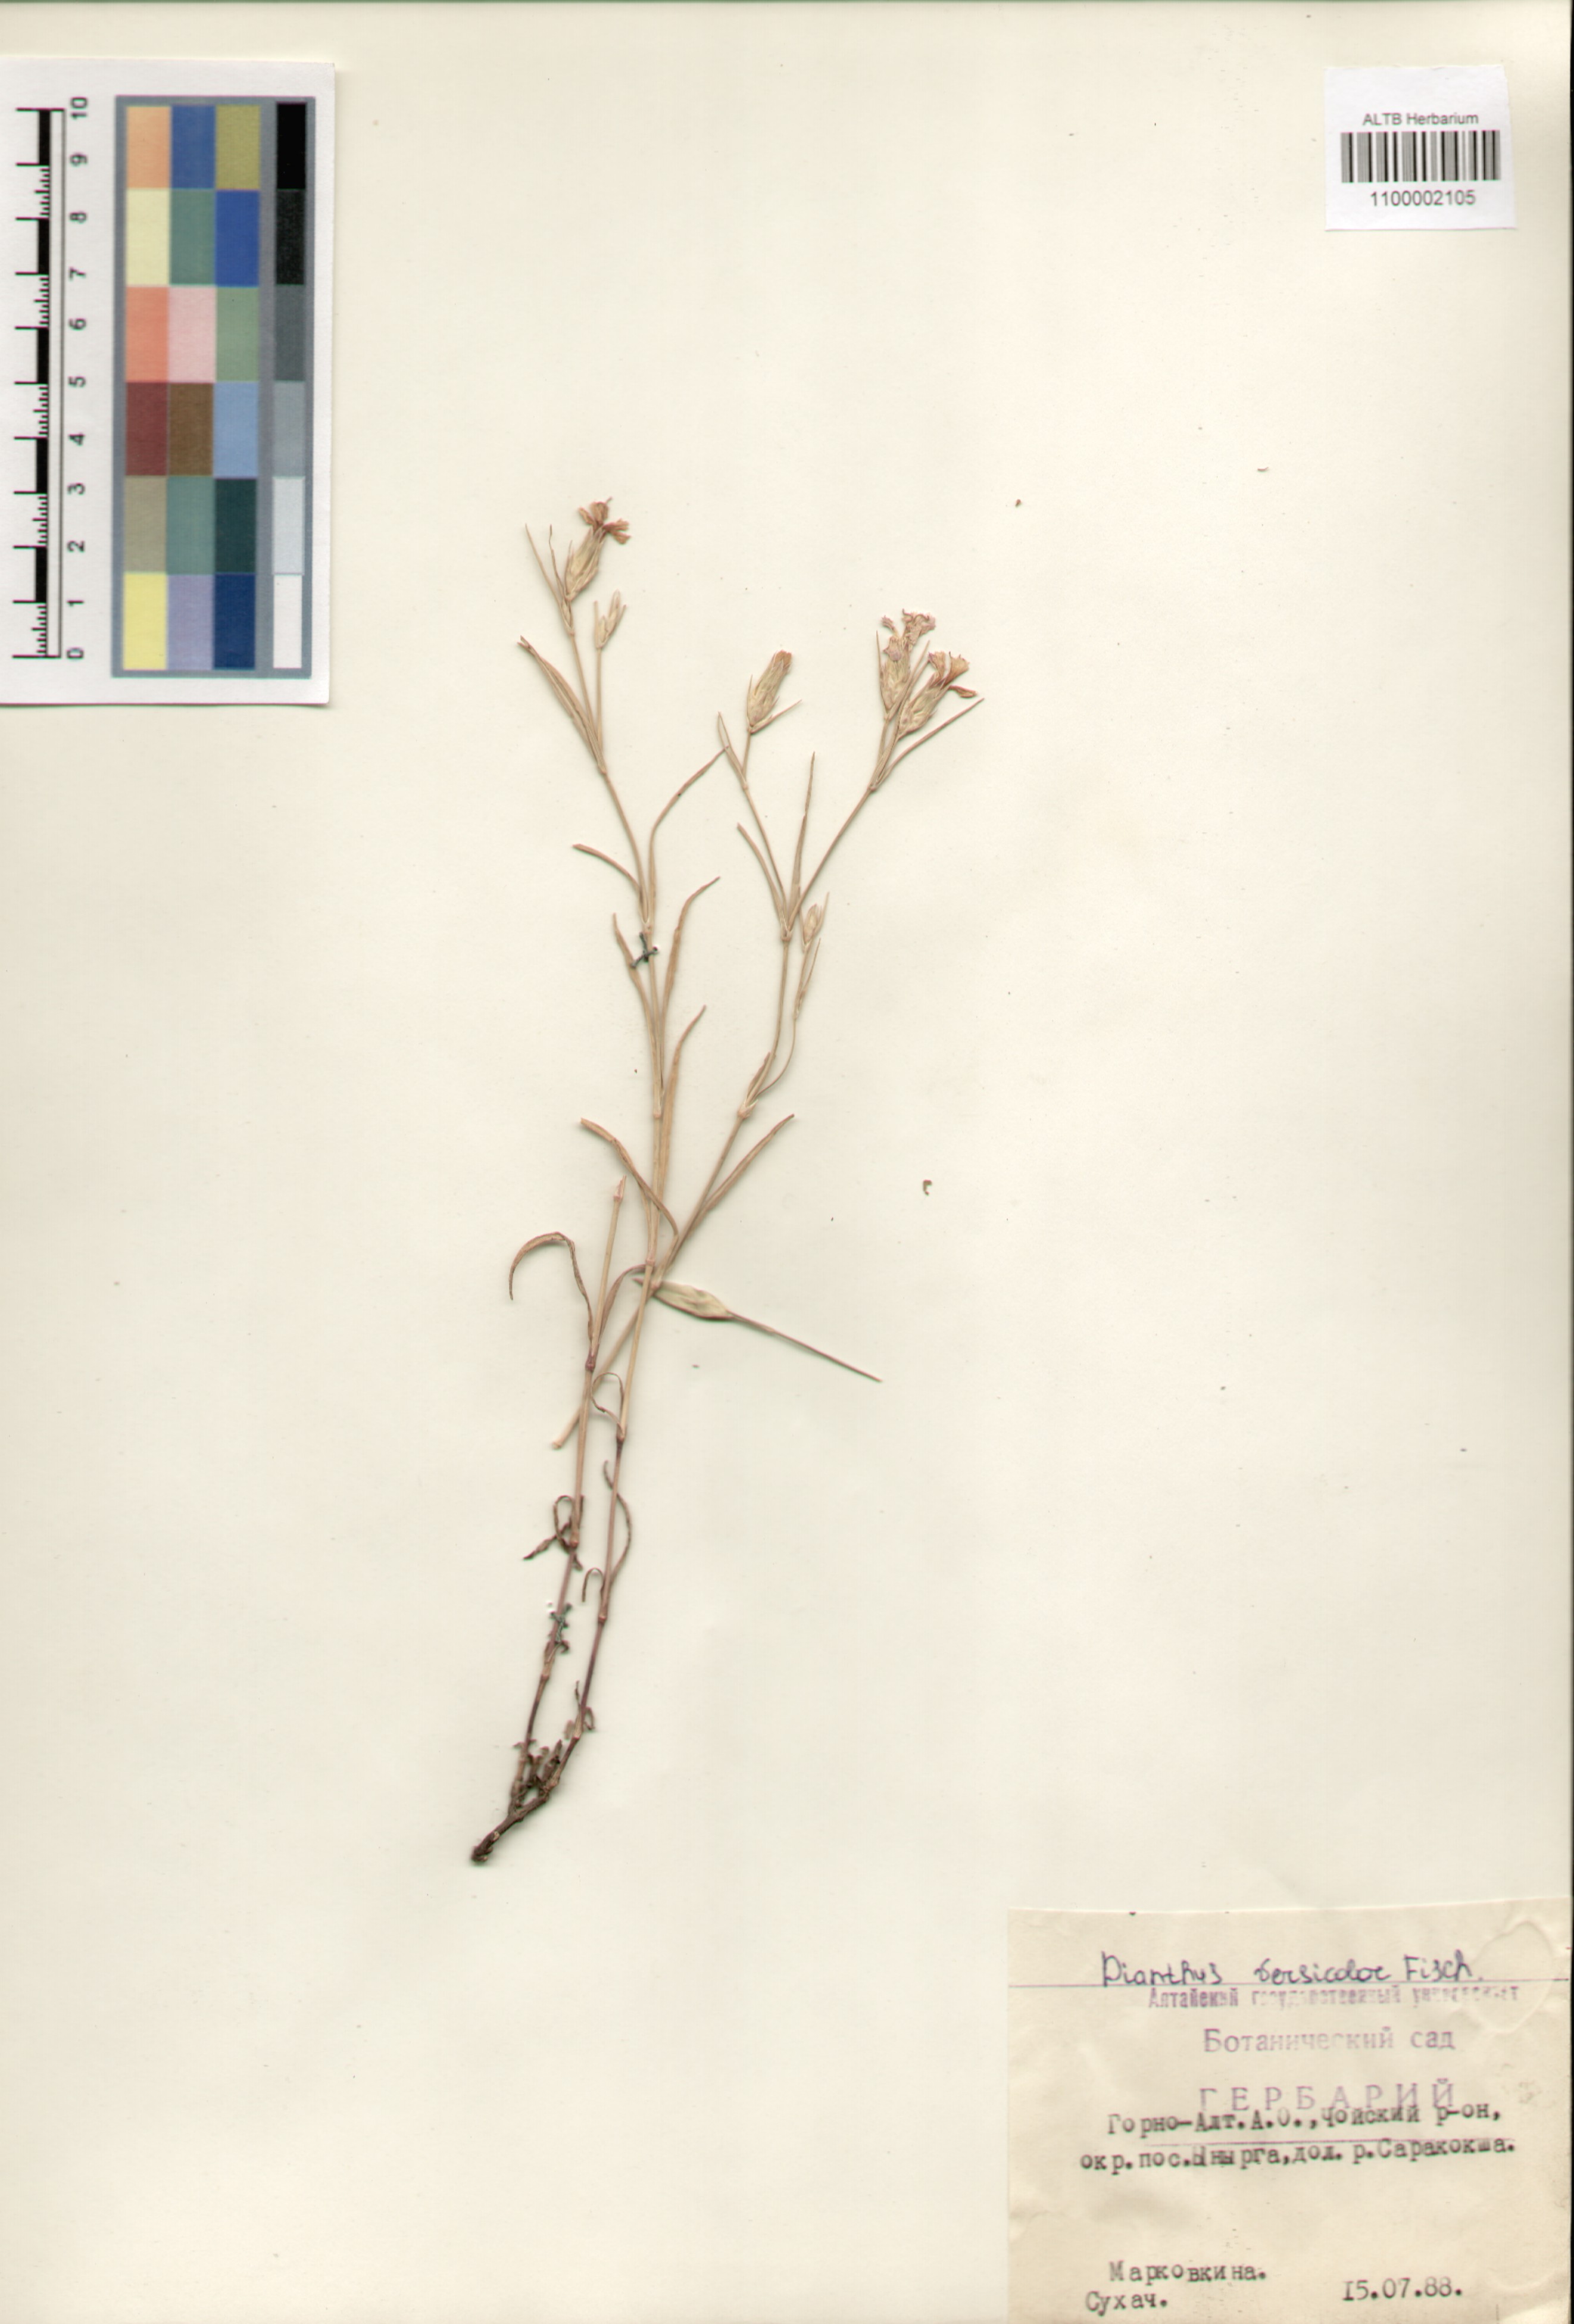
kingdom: Plantae
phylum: Tracheophyta
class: Magnoliopsida
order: Caryophyllales
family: Caryophyllaceae
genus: Dianthus
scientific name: Dianthus chinensis
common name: Rainbow pink
